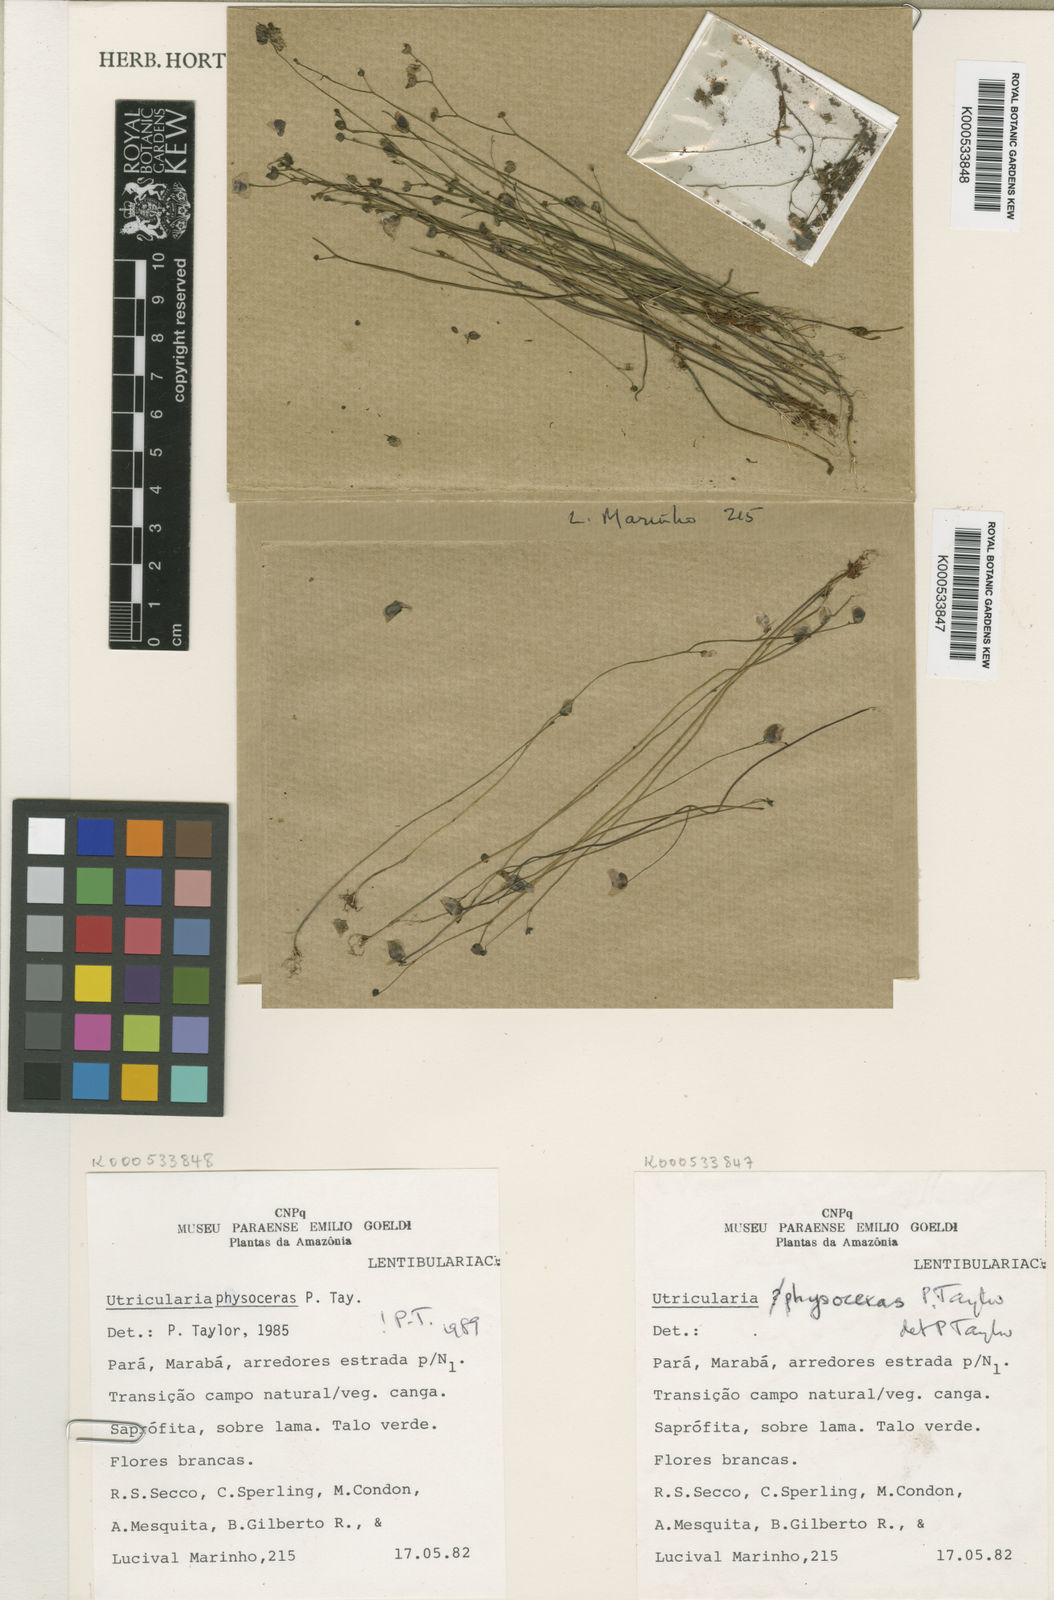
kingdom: Plantae
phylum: Tracheophyta
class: Magnoliopsida
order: Lamiales
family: Lentibulariaceae
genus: Utricularia
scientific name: Utricularia physoceras
